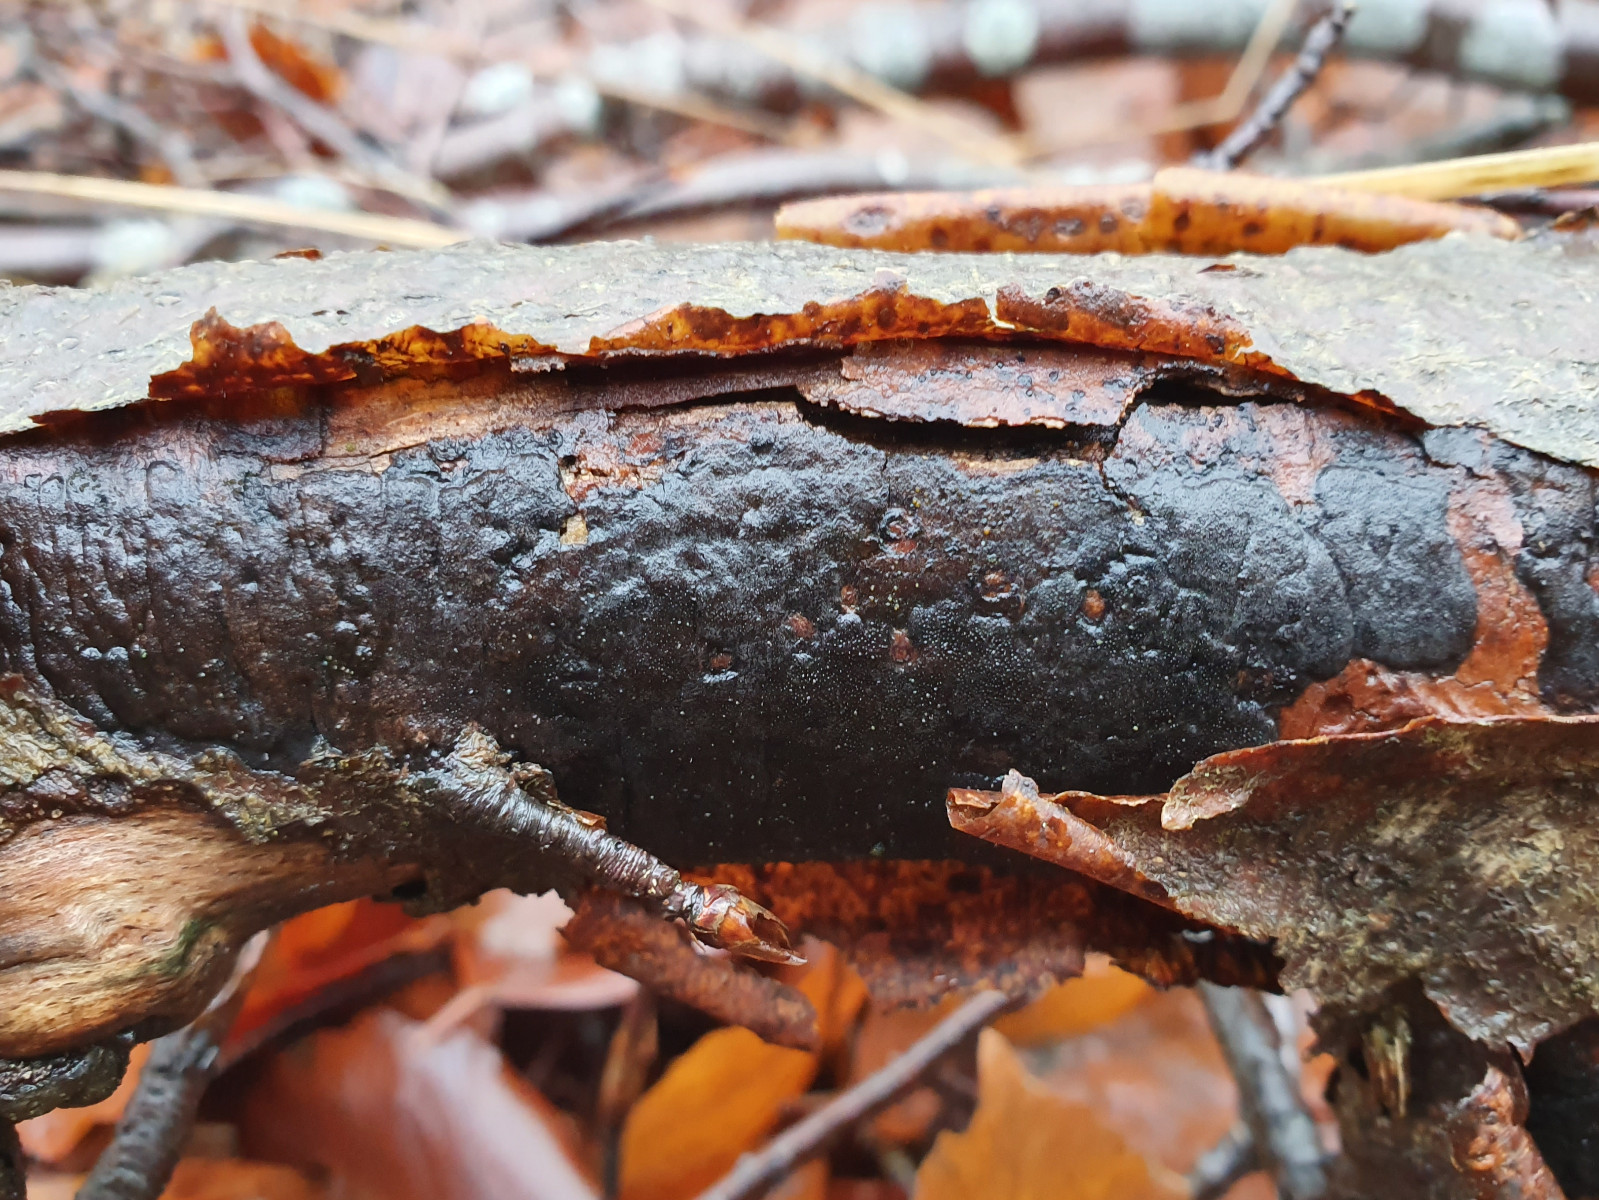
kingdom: Fungi
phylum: Ascomycota
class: Sordariomycetes
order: Xylariales
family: Diatrypaceae
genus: Diatrype
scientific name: Diatrype decorticata
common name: barksprænger-kulskorpe
